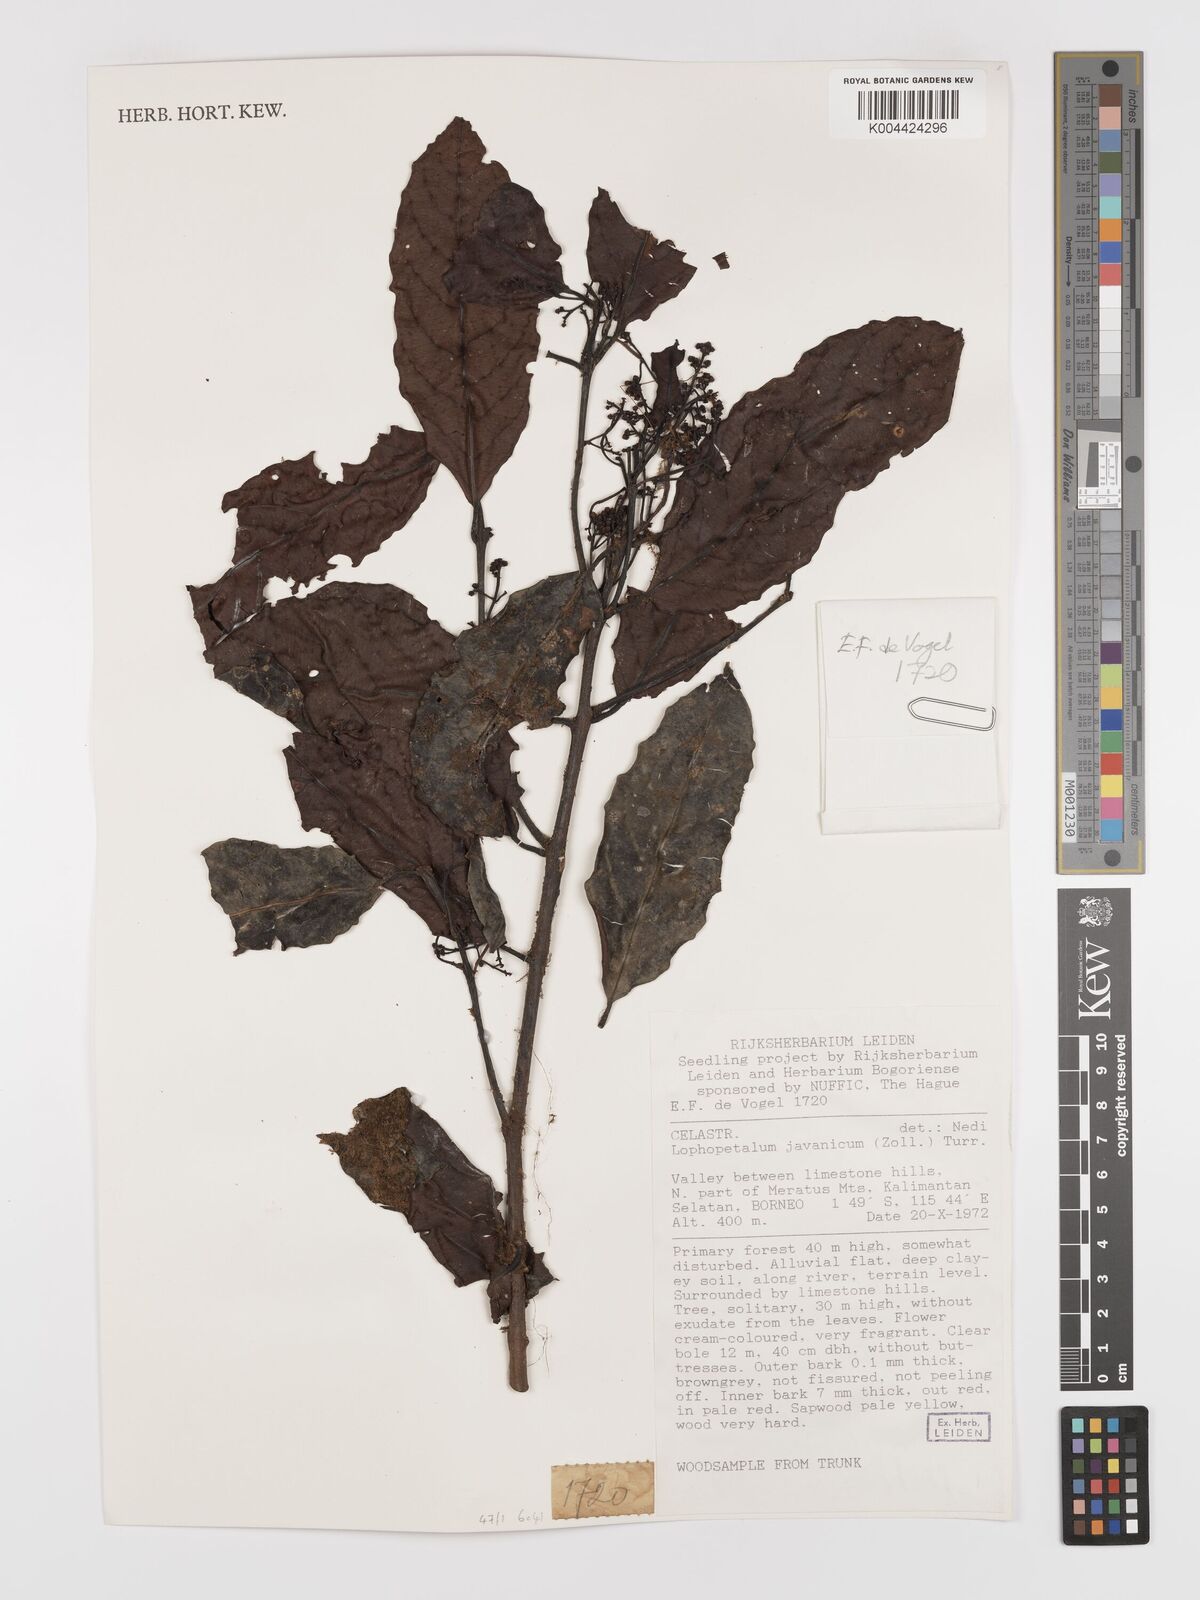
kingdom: Plantae
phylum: Tracheophyta
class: Magnoliopsida
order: Celastrales
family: Celastraceae
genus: Lophopetalum
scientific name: Lophopetalum javanicum
